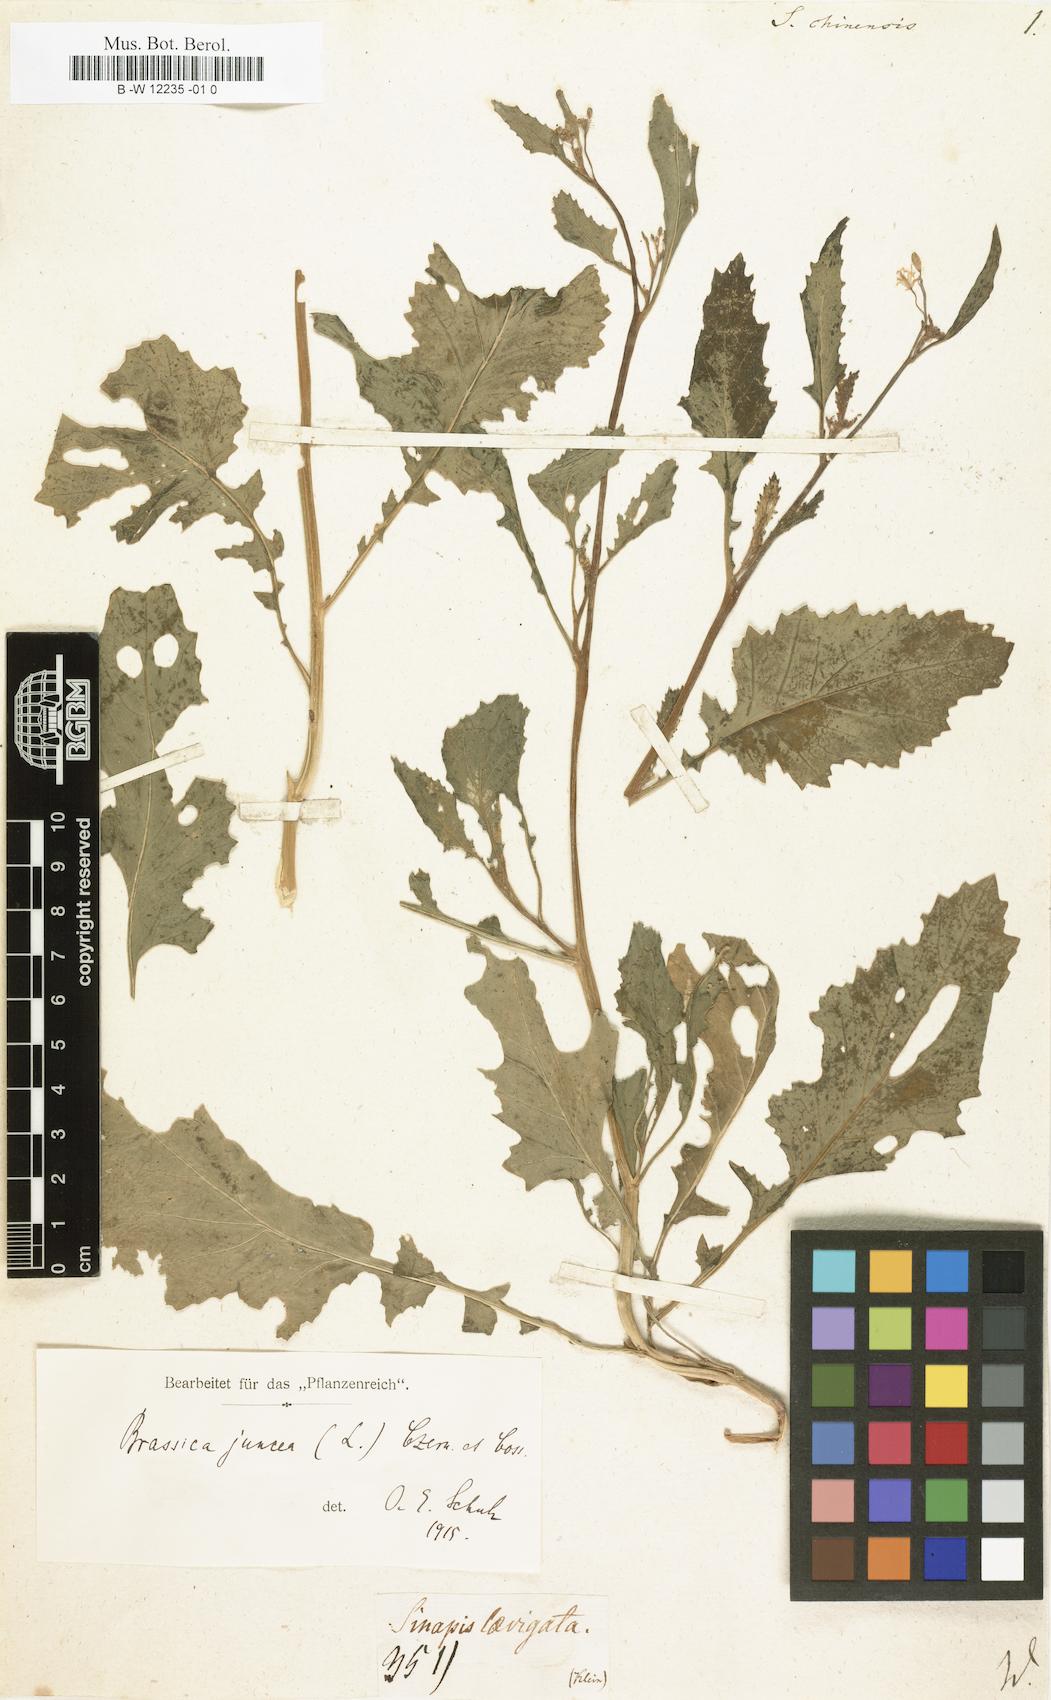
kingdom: Plantae
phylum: Tracheophyta
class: Magnoliopsida
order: Brassicales
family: Brassicaceae
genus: Brassica
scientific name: Brassica juncea
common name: Brown mustard
